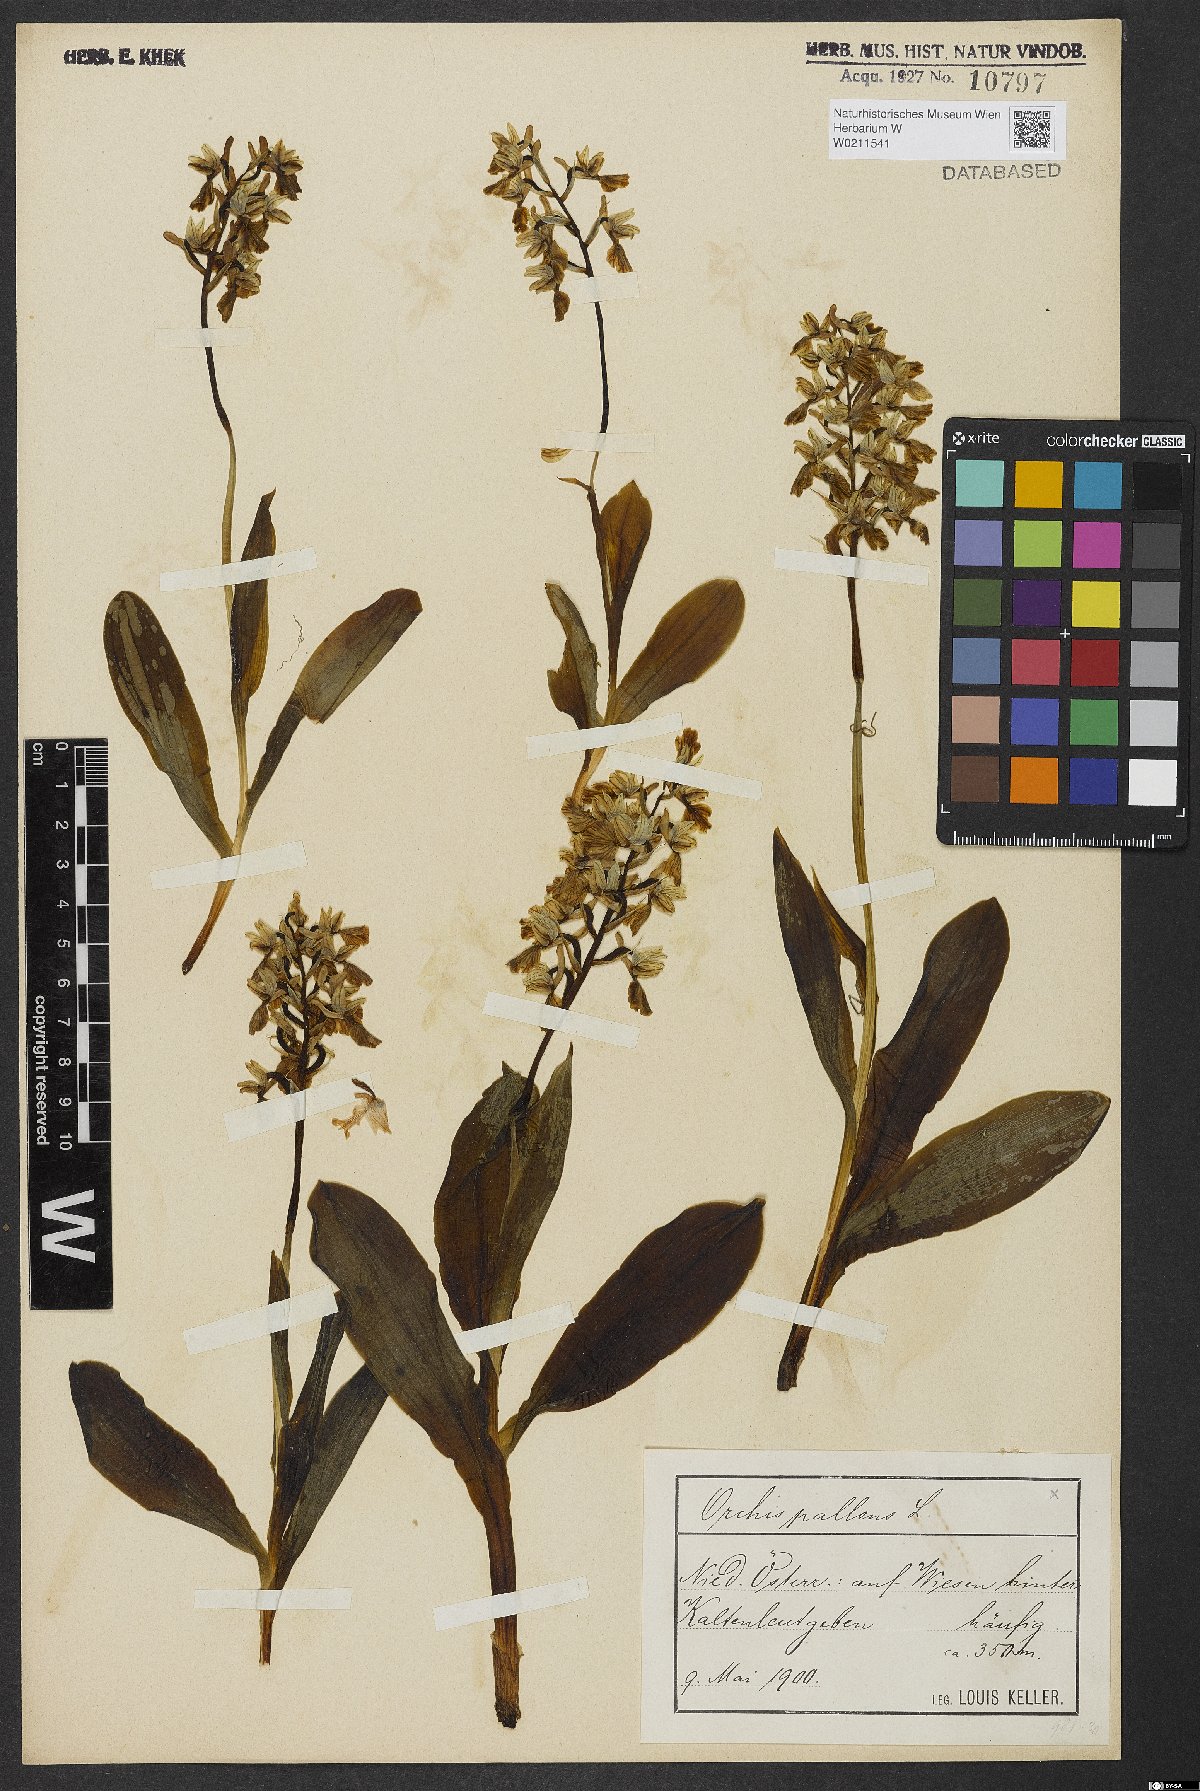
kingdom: Plantae
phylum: Tracheophyta
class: Liliopsida
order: Asparagales
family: Orchidaceae
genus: Orchis
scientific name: Orchis pallens
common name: Pale-flowered orchid
